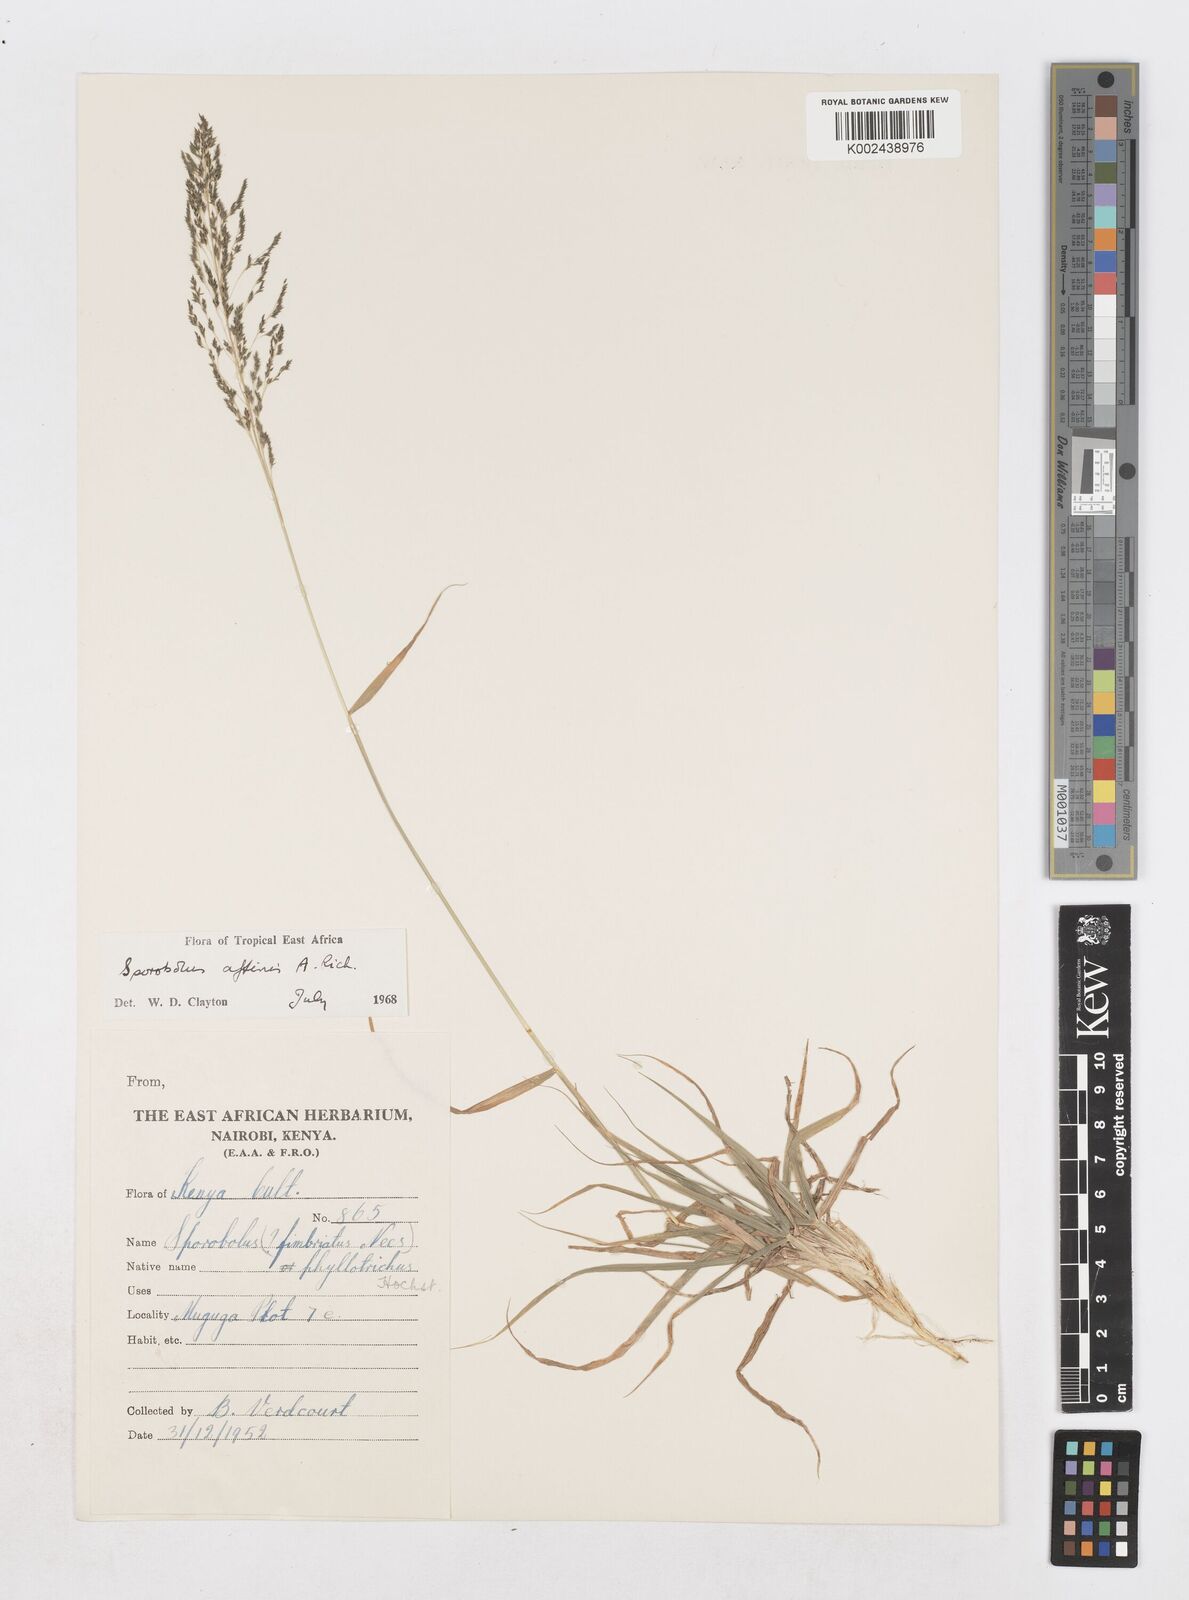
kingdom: Plantae
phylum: Tracheophyta
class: Liliopsida
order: Poales
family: Poaceae
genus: Sporobolus
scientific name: Sporobolus confinis
